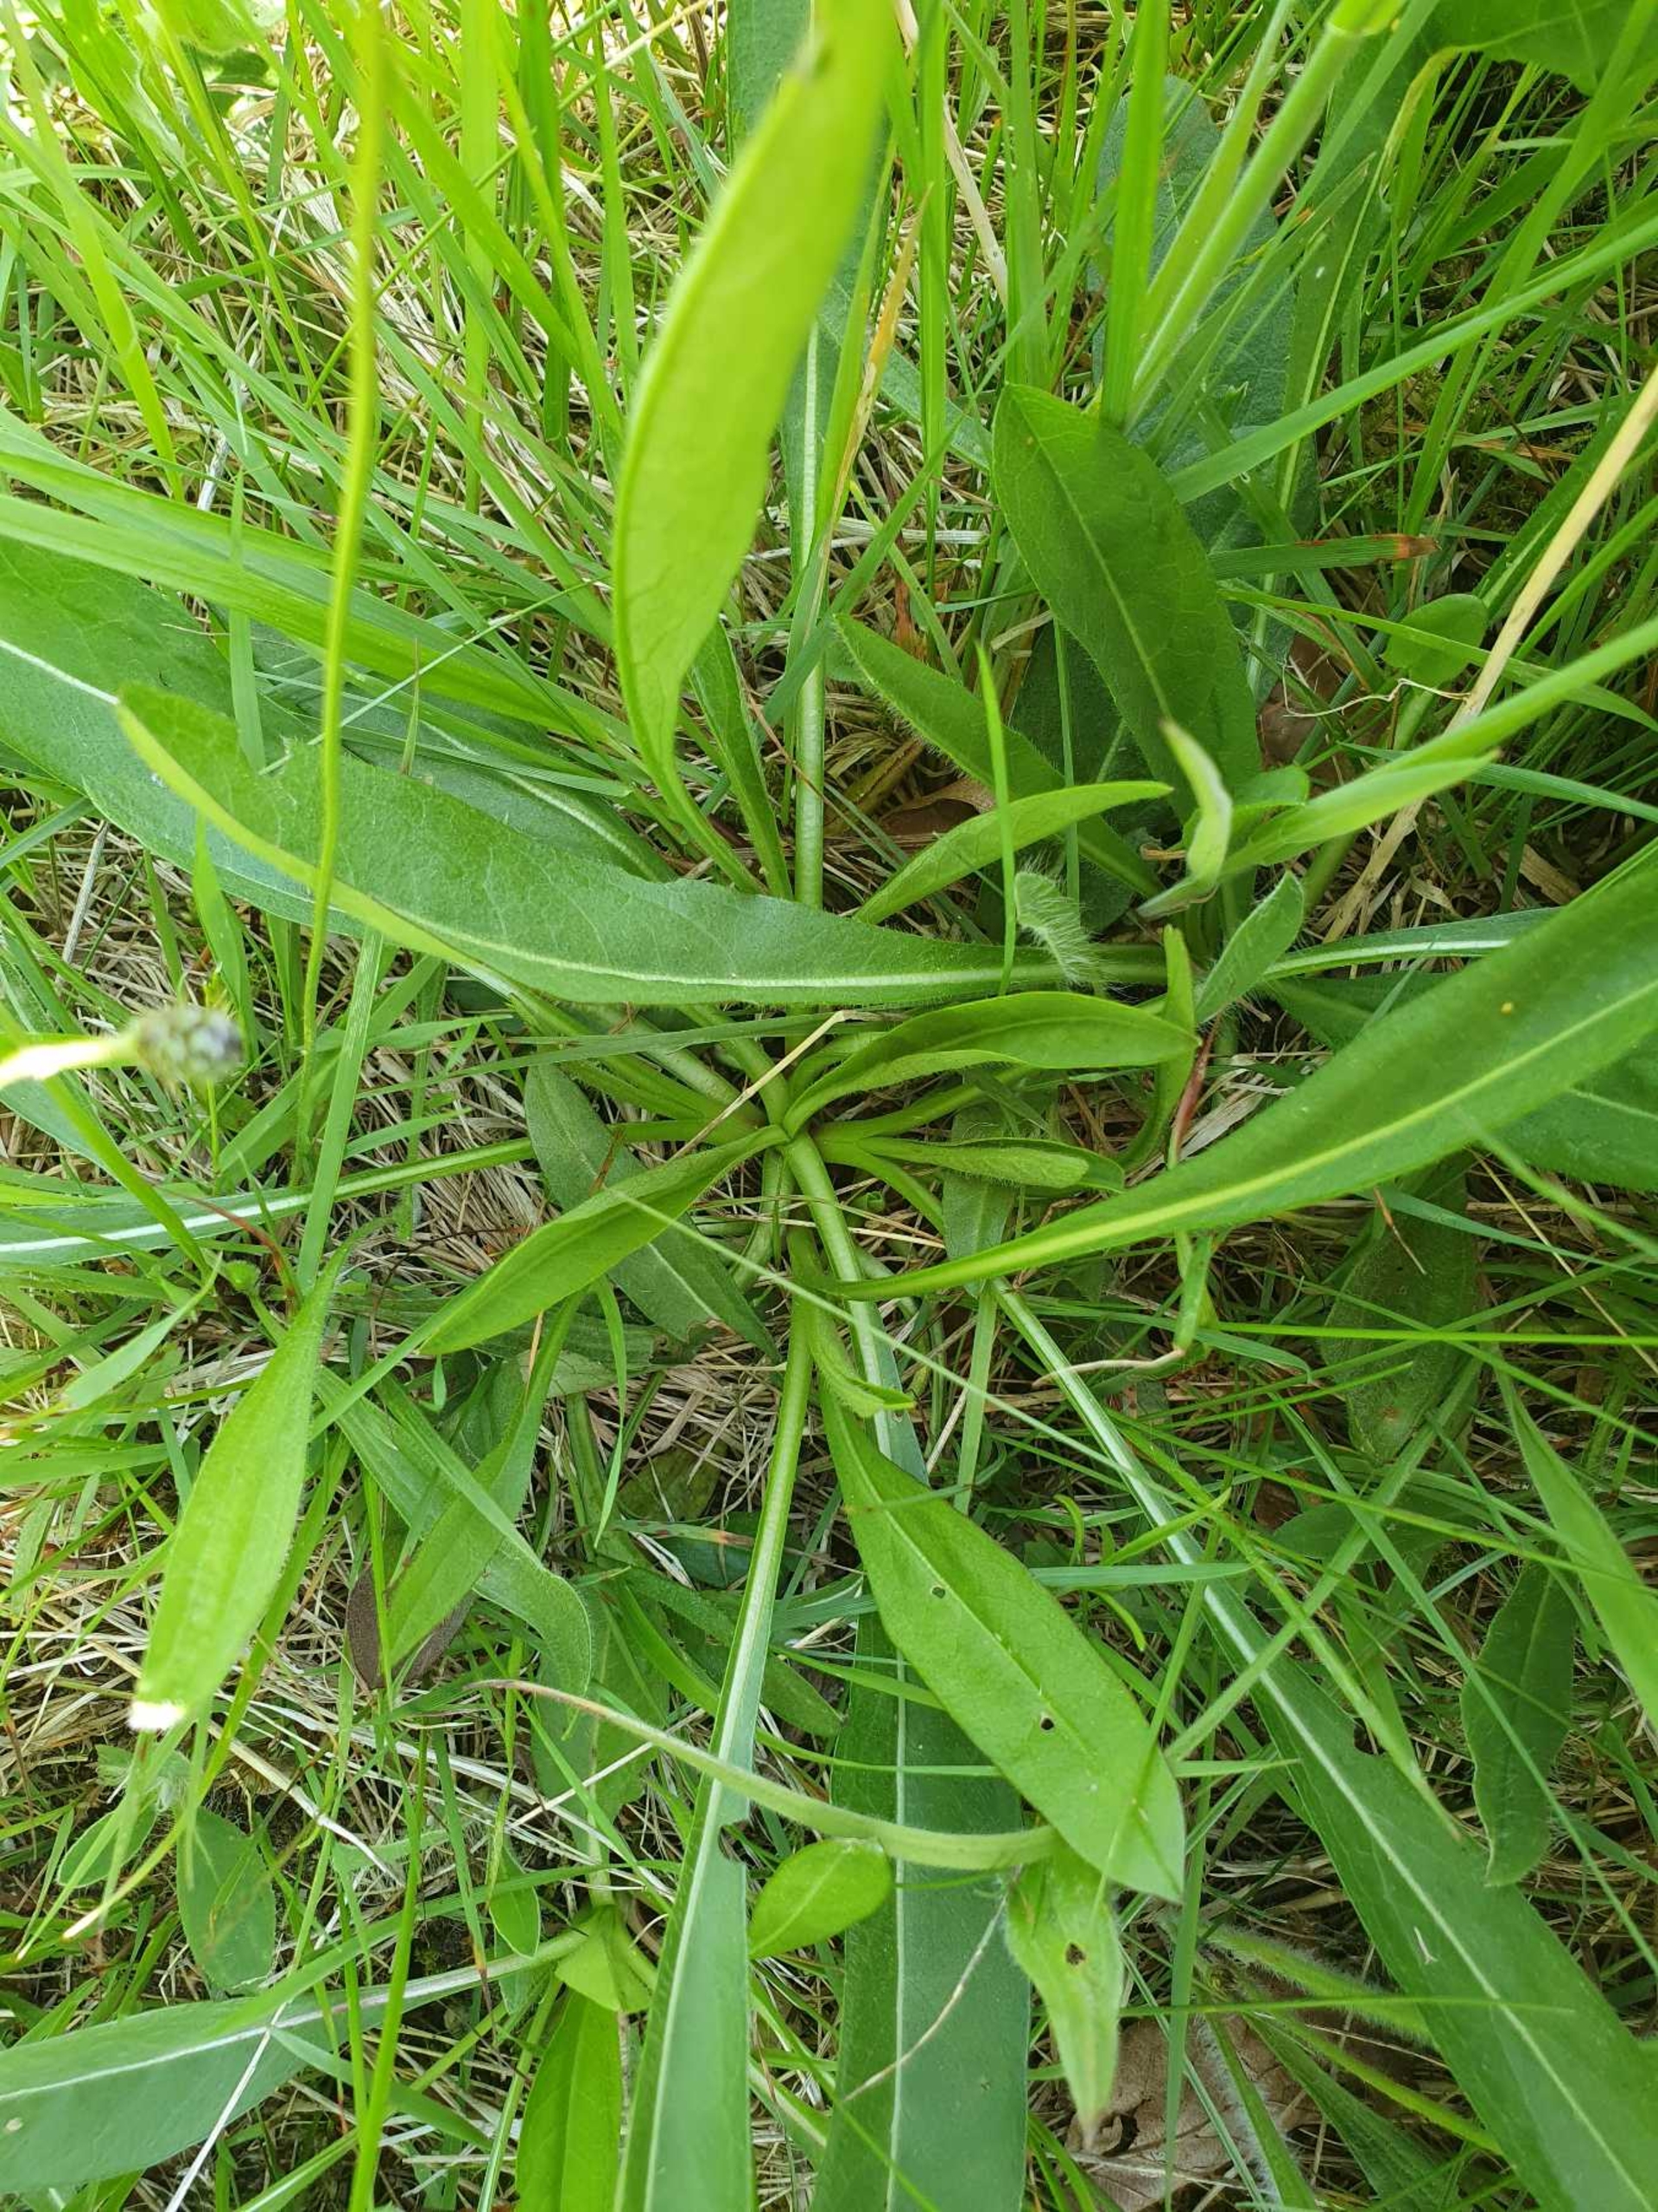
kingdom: Plantae
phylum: Tracheophyta
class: Magnoliopsida
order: Dipsacales
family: Caprifoliaceae
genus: Succisa
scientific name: Succisa pratensis
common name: Djævelsbid
